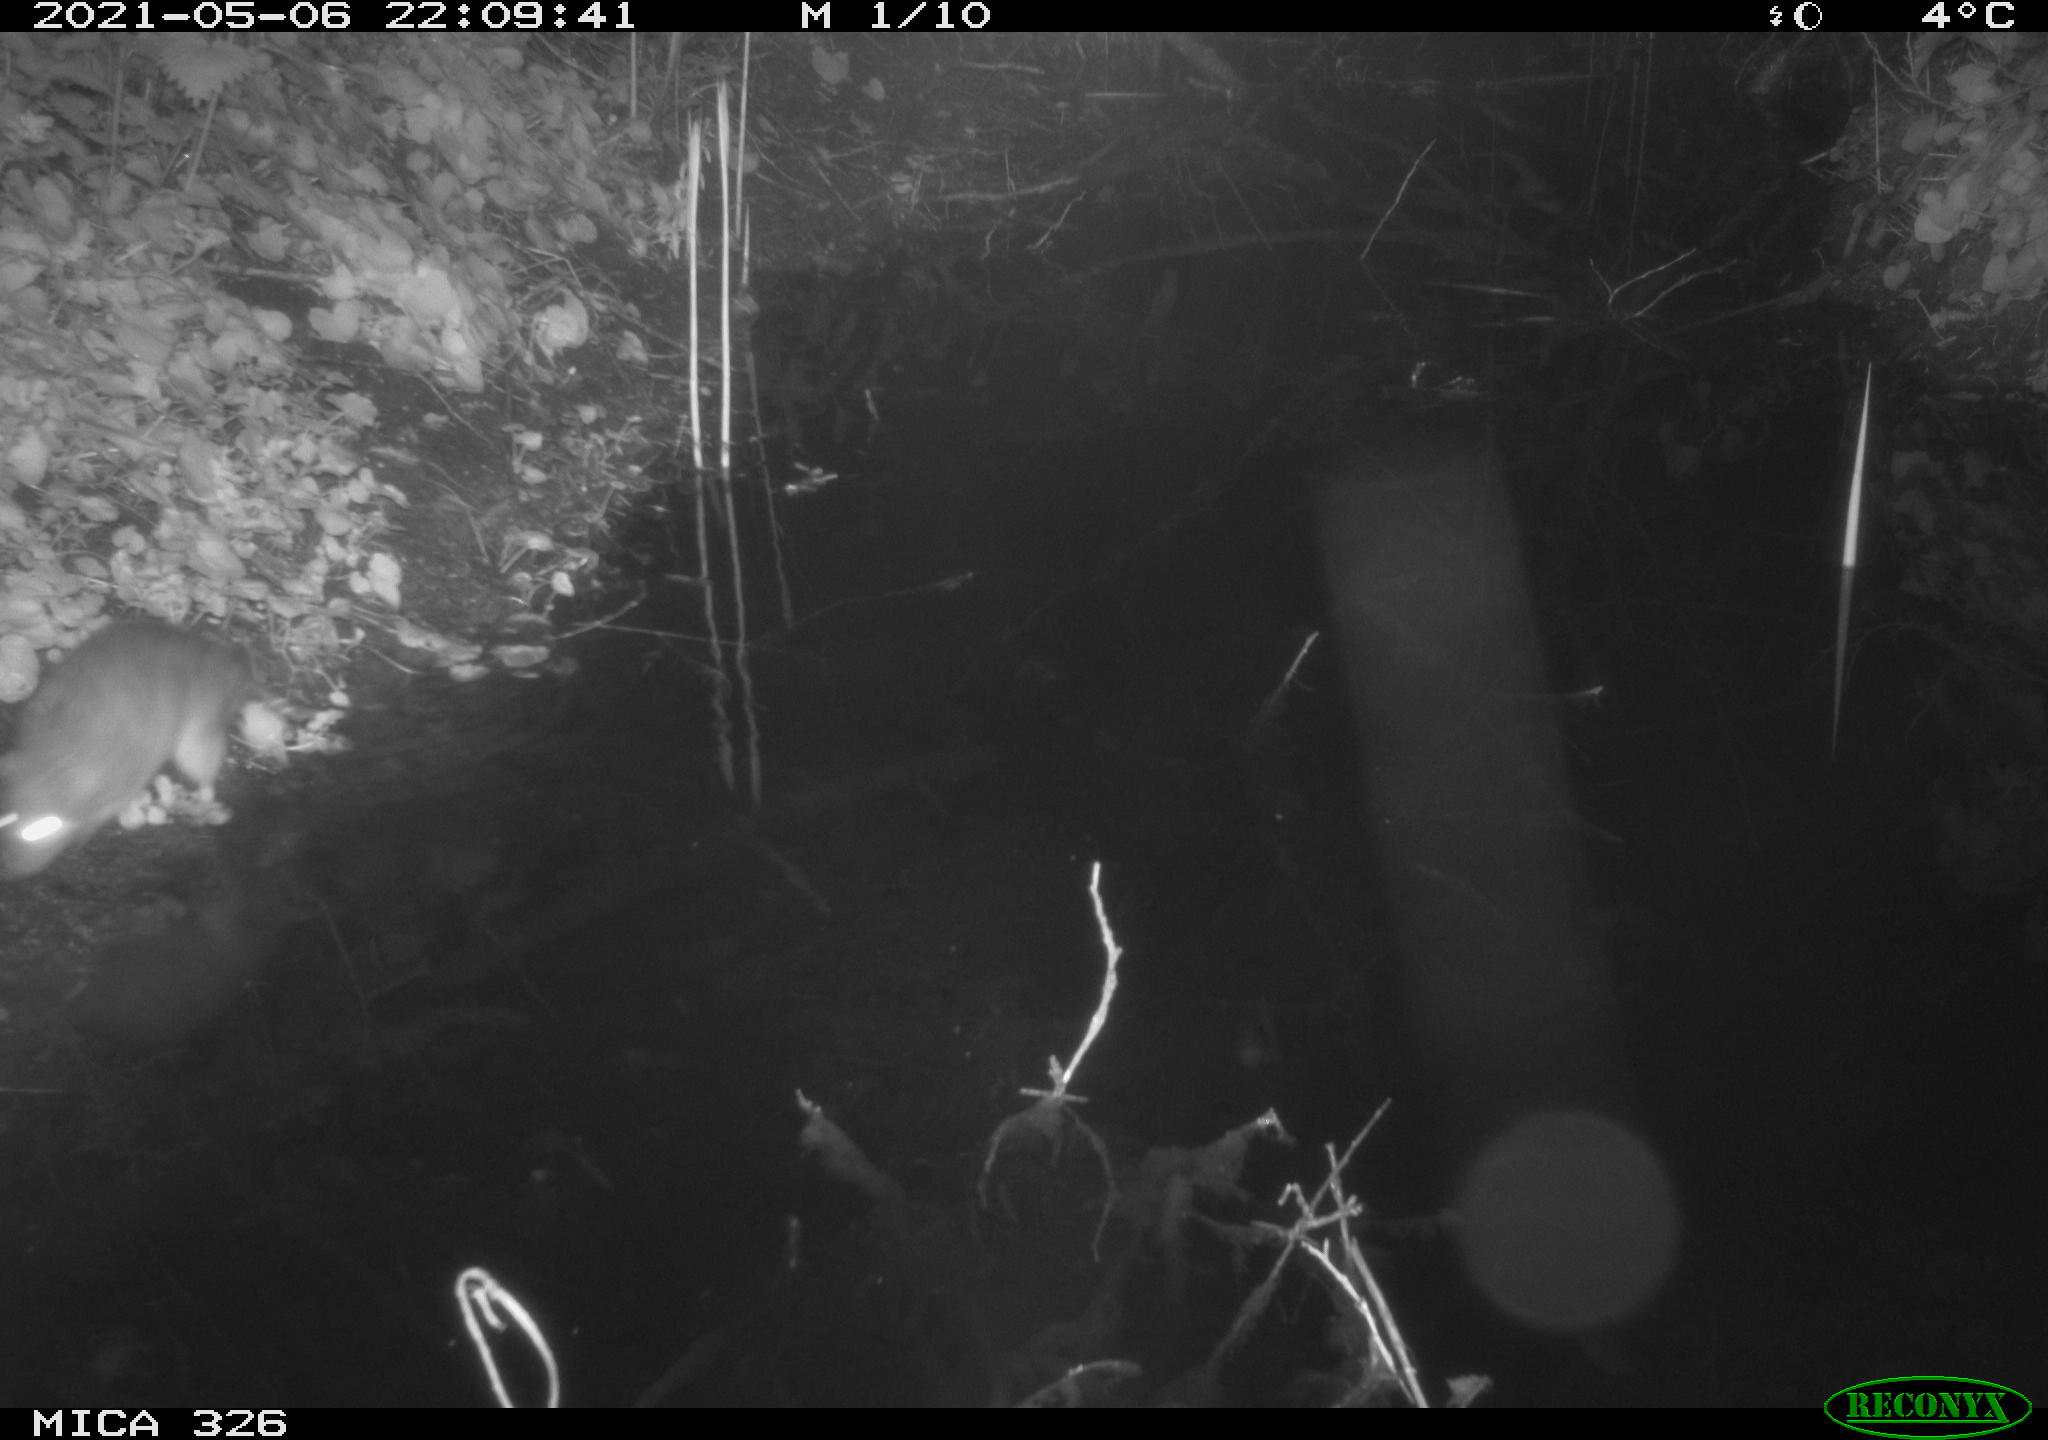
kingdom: Animalia
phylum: Chordata
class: Mammalia
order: Rodentia
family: Muridae
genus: Rattus
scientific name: Rattus norvegicus
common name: Brown rat
